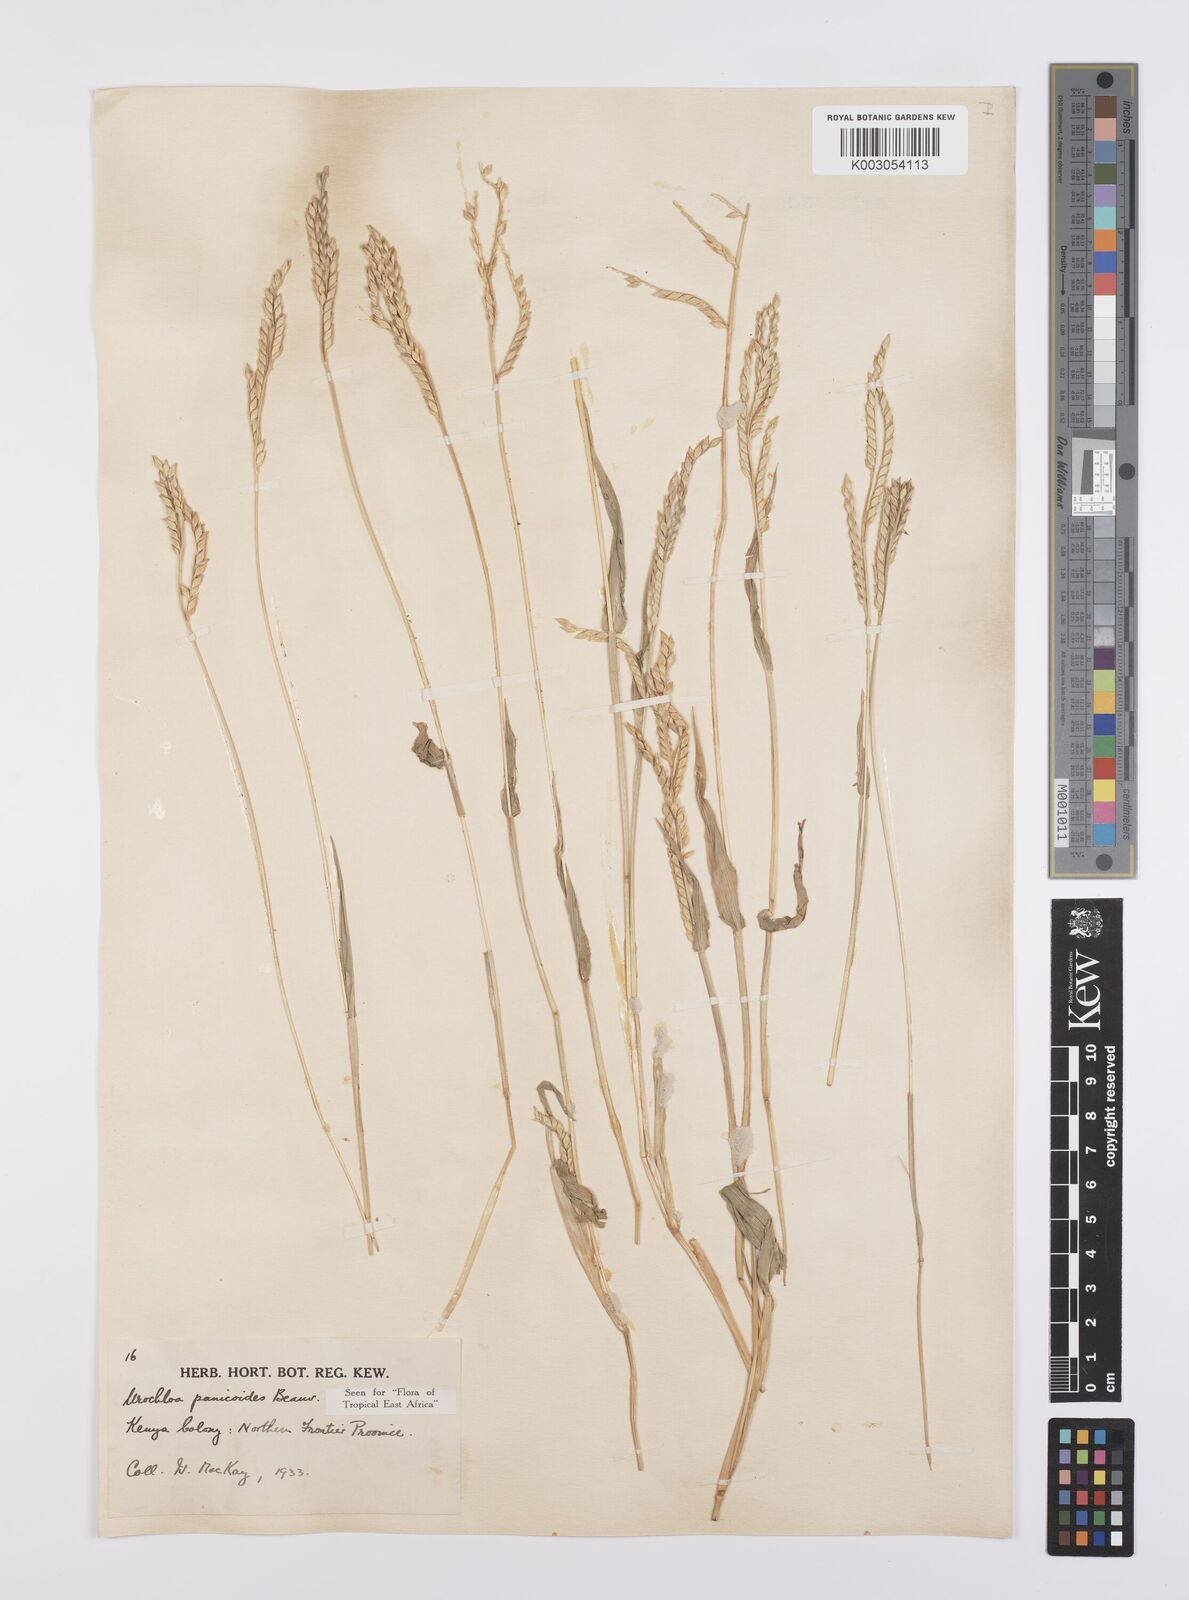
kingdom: Plantae
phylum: Tracheophyta
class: Liliopsida
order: Poales
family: Poaceae
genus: Urochloa
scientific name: Urochloa panicoides
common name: Sharp-flowered signal-grass
